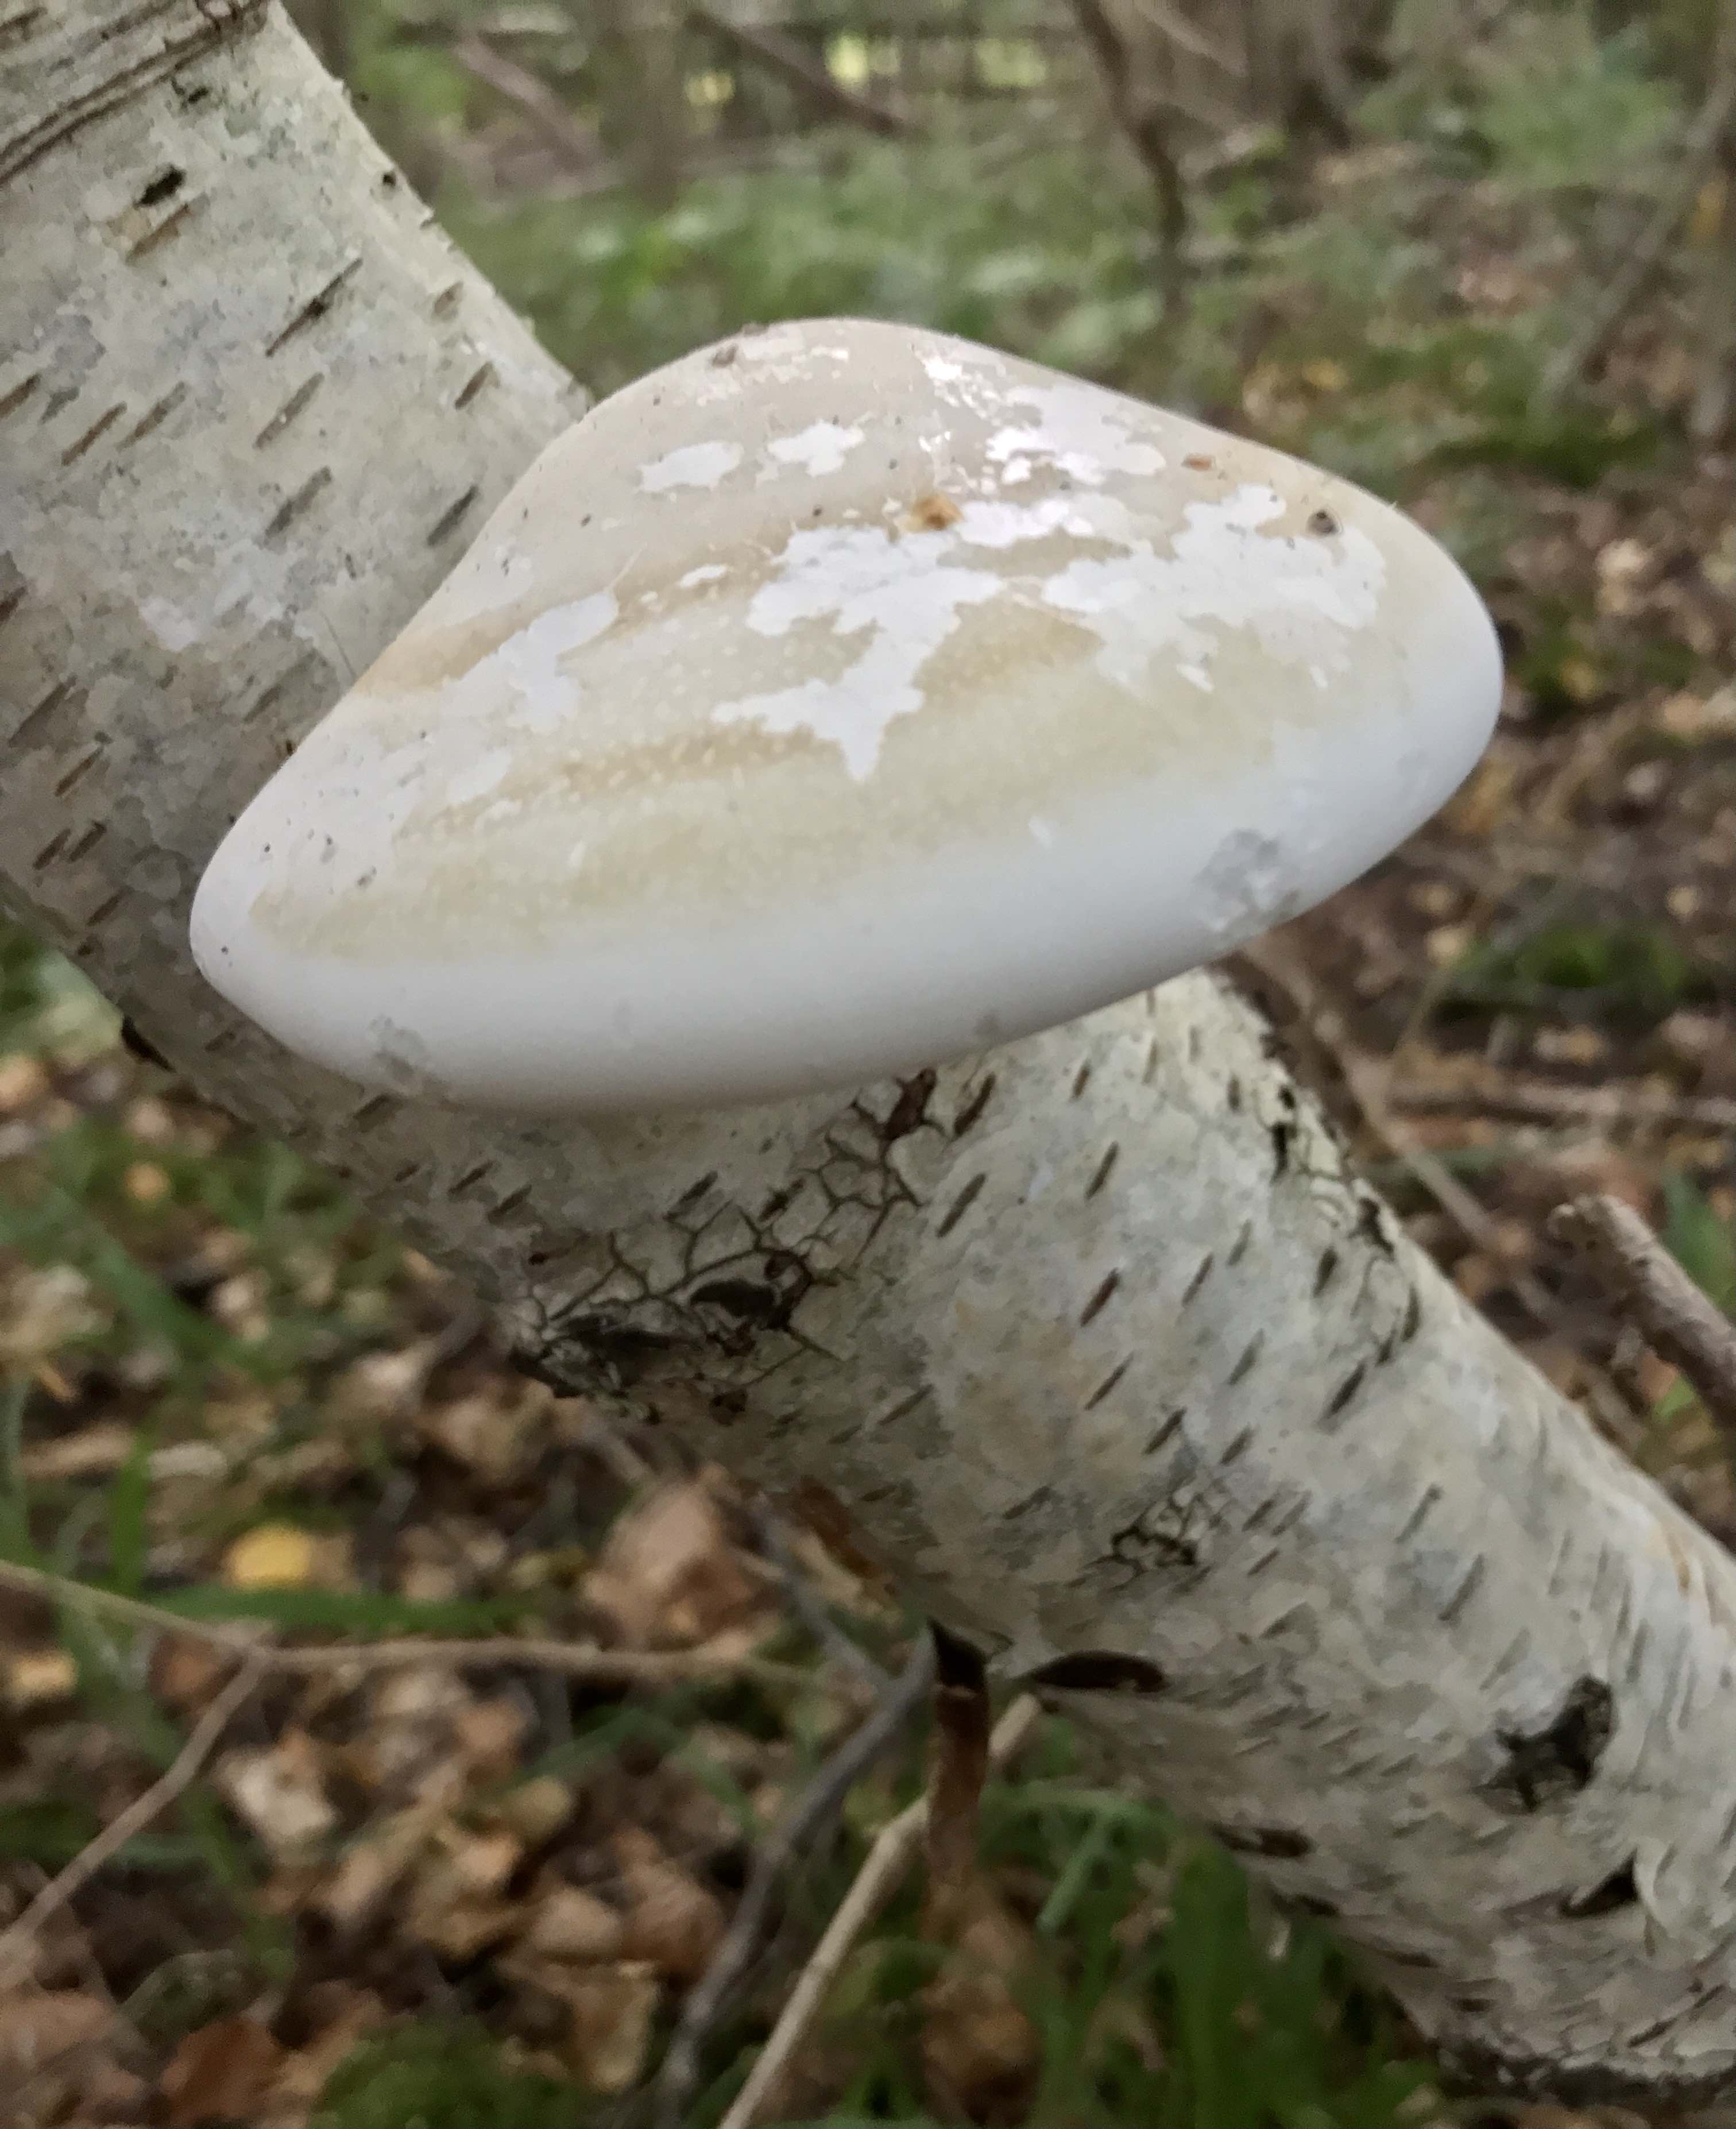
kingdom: Fungi
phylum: Basidiomycota
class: Agaricomycetes
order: Polyporales
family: Fomitopsidaceae
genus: Fomitopsis
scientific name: Fomitopsis betulina
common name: birkeporesvamp
